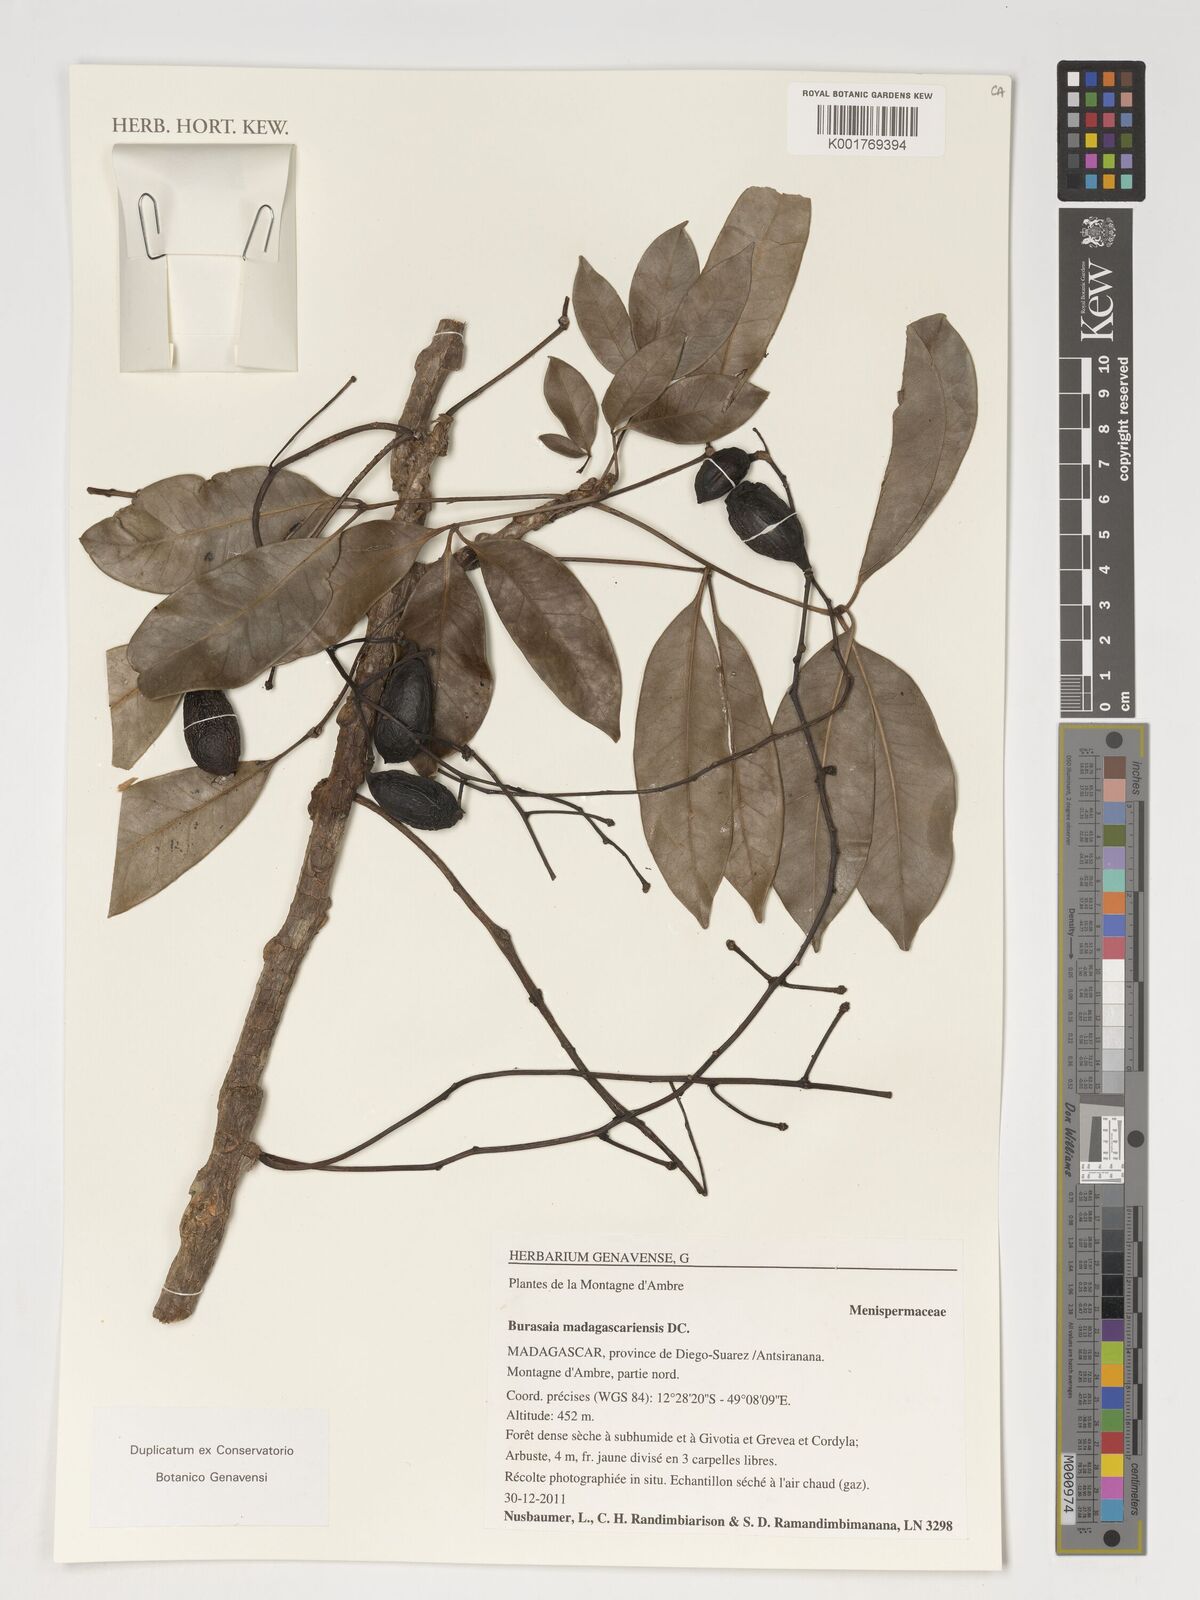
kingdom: Plantae
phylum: Tracheophyta
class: Magnoliopsida
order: Ranunculales
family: Menispermaceae
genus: Burasaia
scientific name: Burasaia madagascariensis
